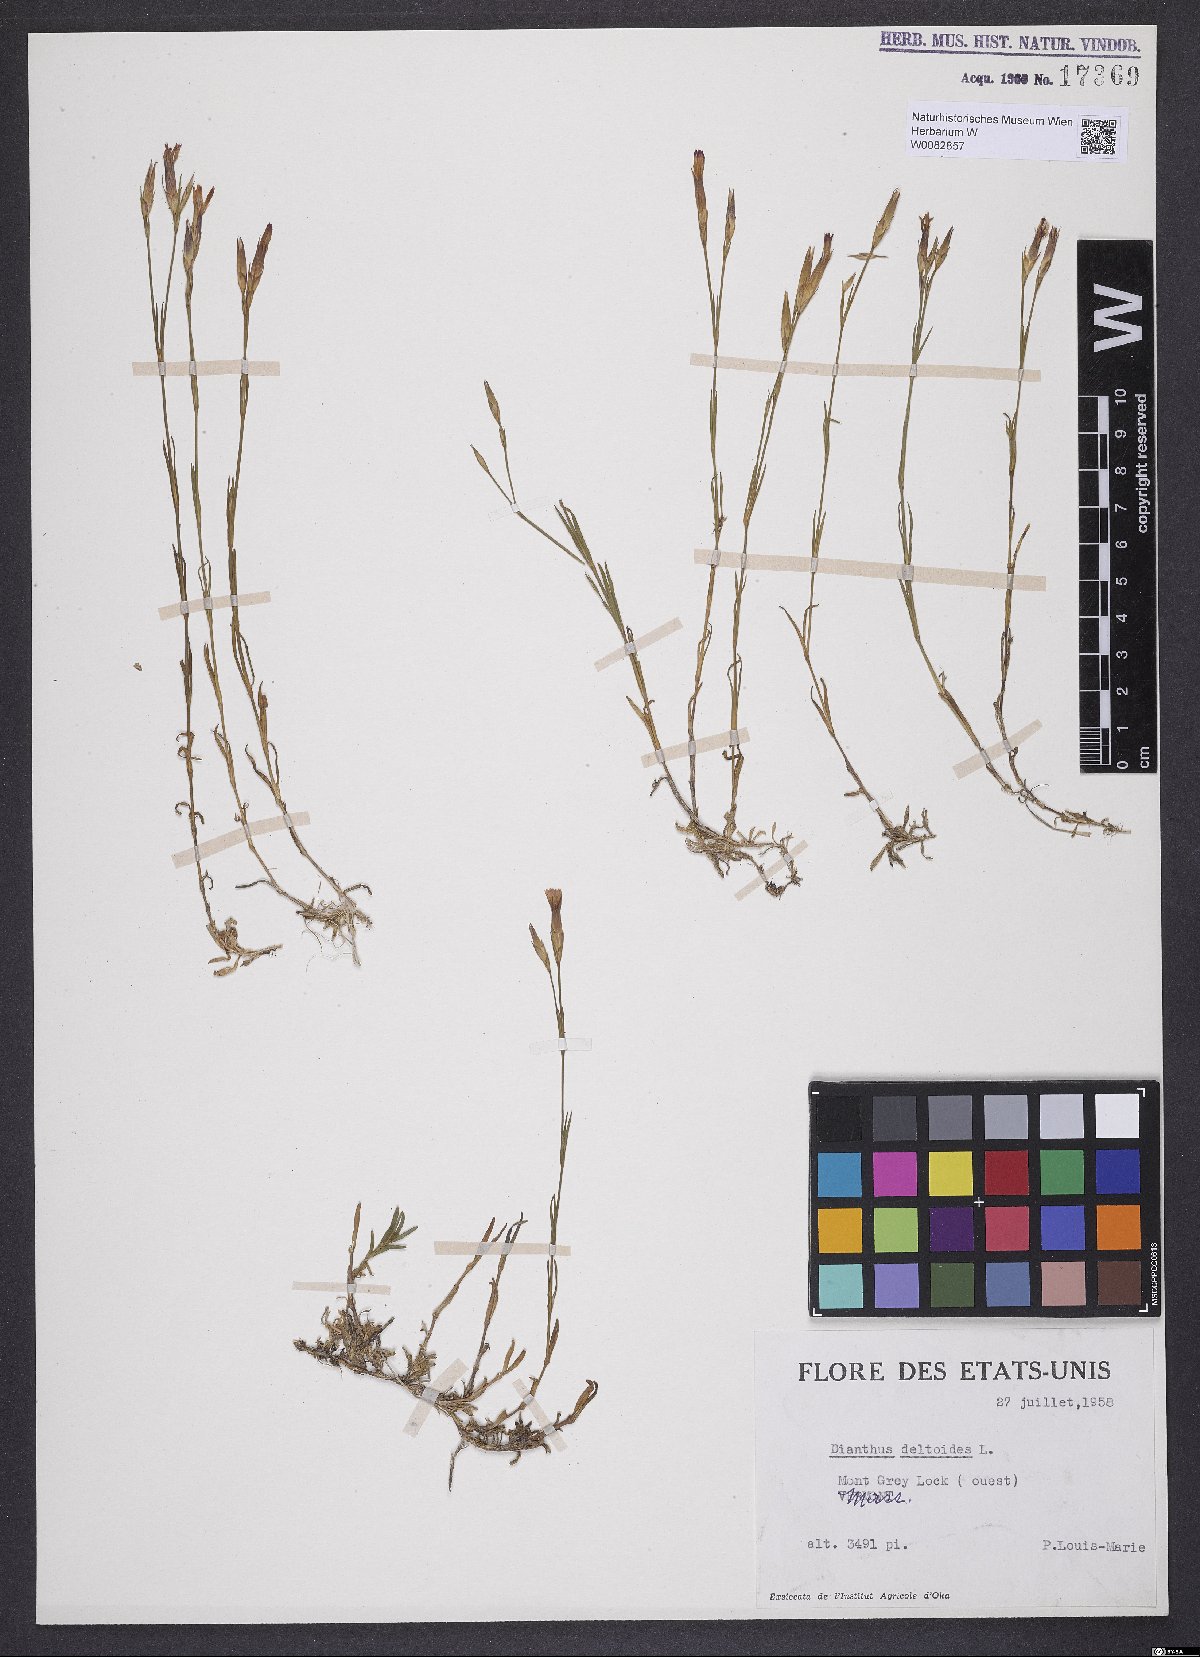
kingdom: Plantae
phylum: Tracheophyta
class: Magnoliopsida
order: Caryophyllales
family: Caryophyllaceae
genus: Dianthus
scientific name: Dianthus deltoides
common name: Maiden pink
